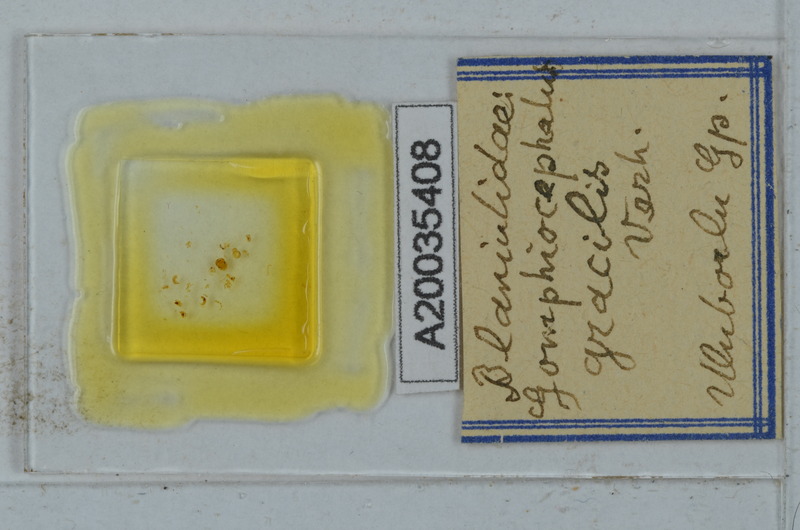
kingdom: Animalia
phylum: Arthropoda
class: Diplopoda
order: Julida
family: Blaniulidae
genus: Nopoiulus
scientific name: Nopoiulus kochii
